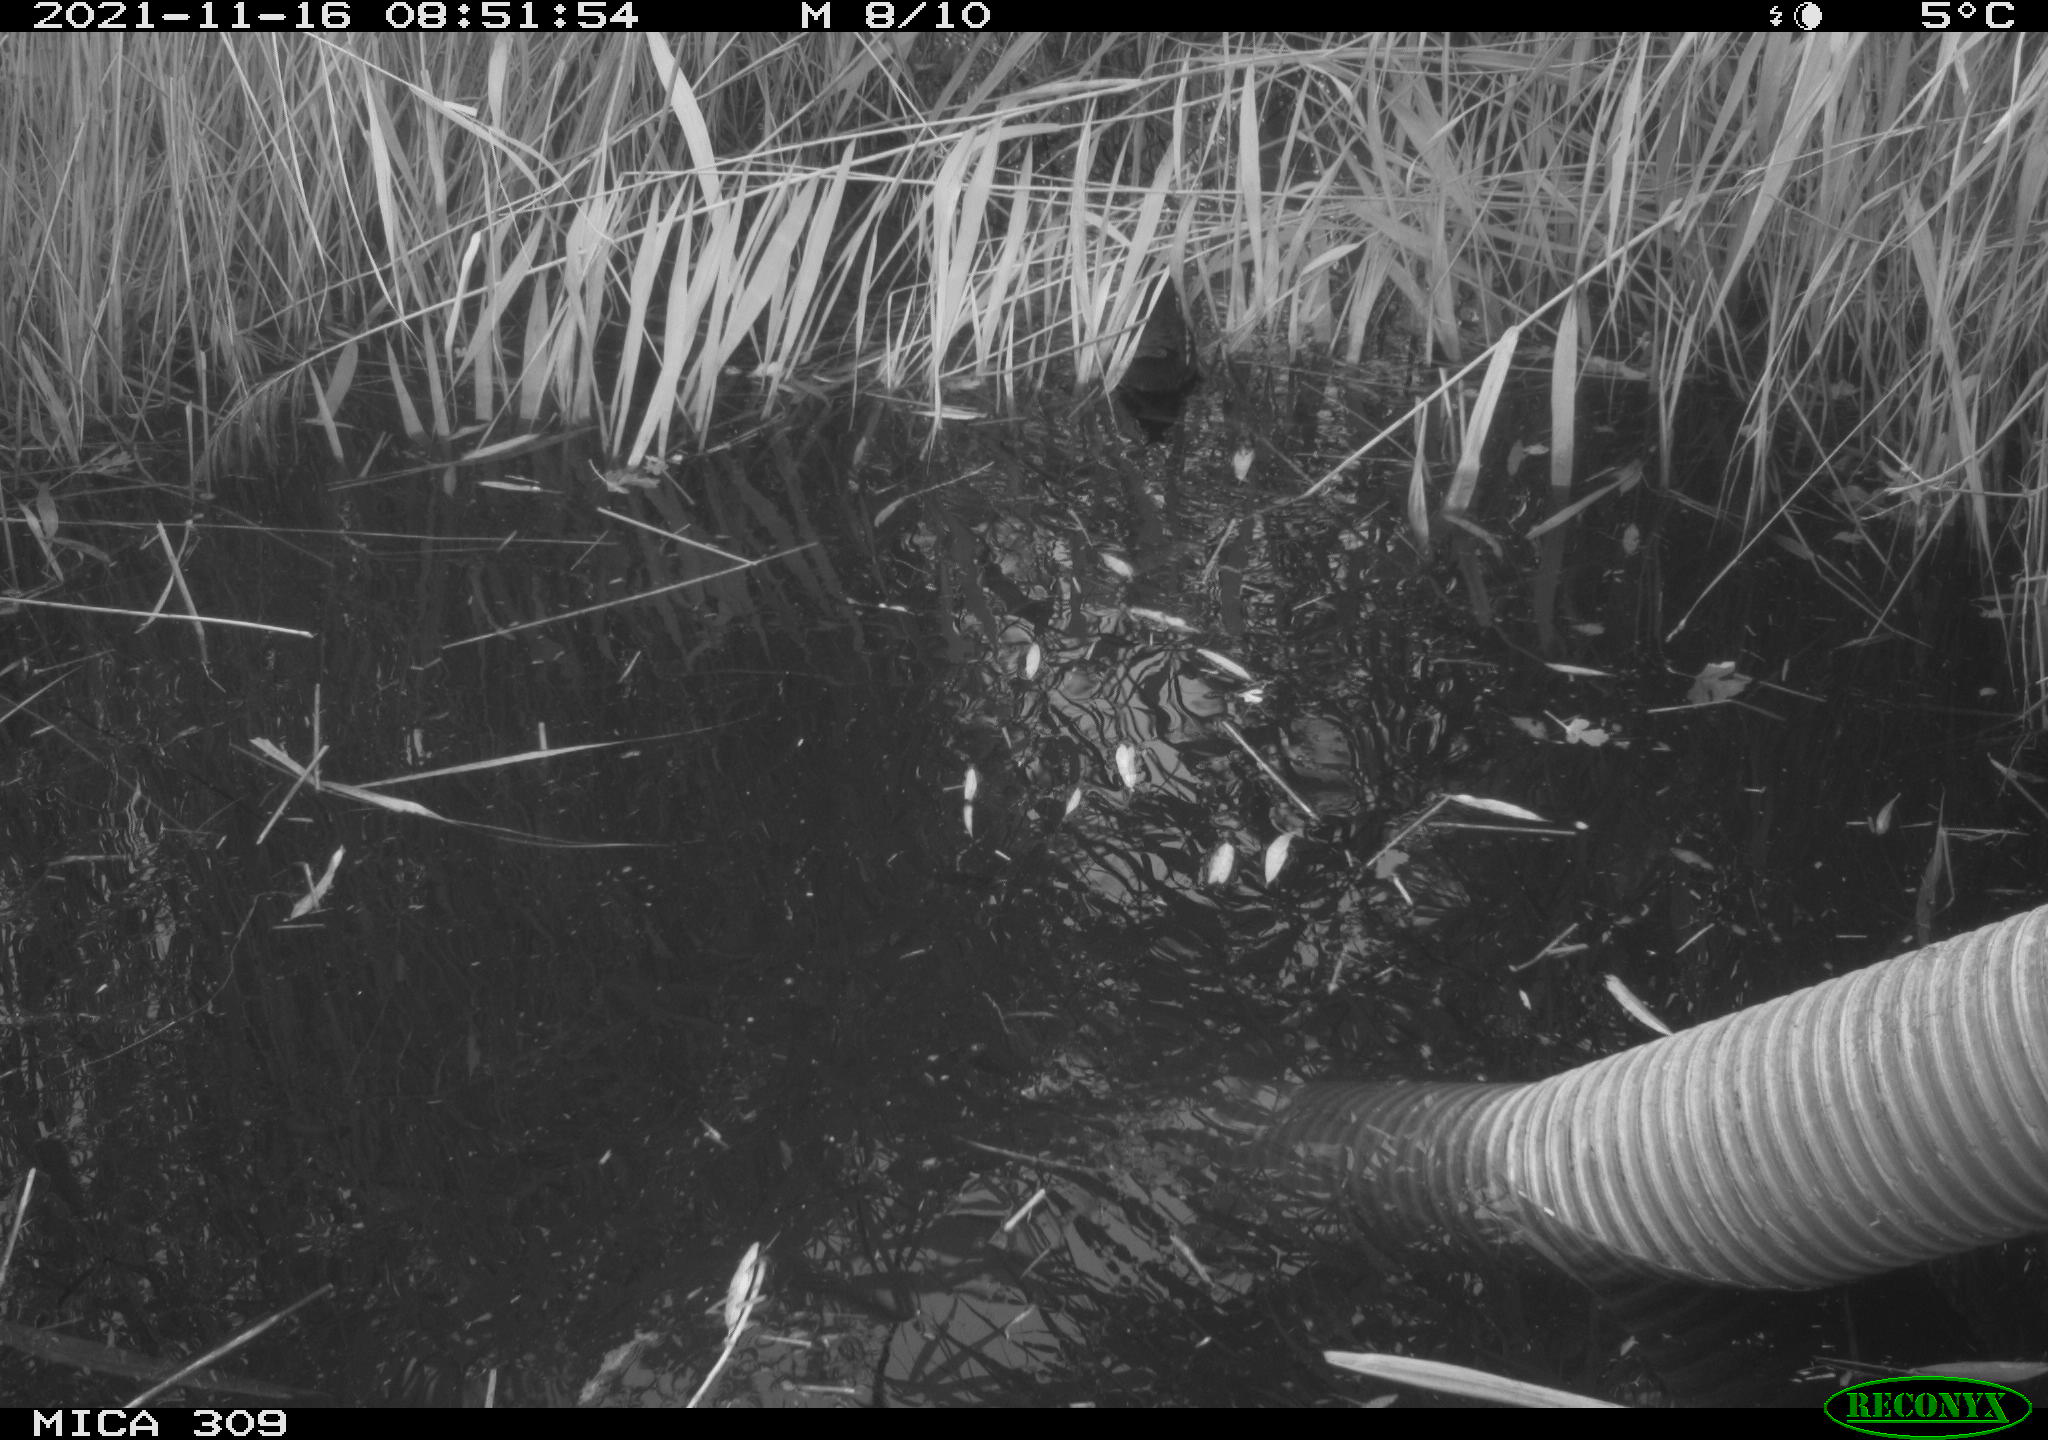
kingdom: Animalia
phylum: Chordata
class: Aves
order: Gruiformes
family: Rallidae
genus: Gallinula
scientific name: Gallinula chloropus
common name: Common moorhen
